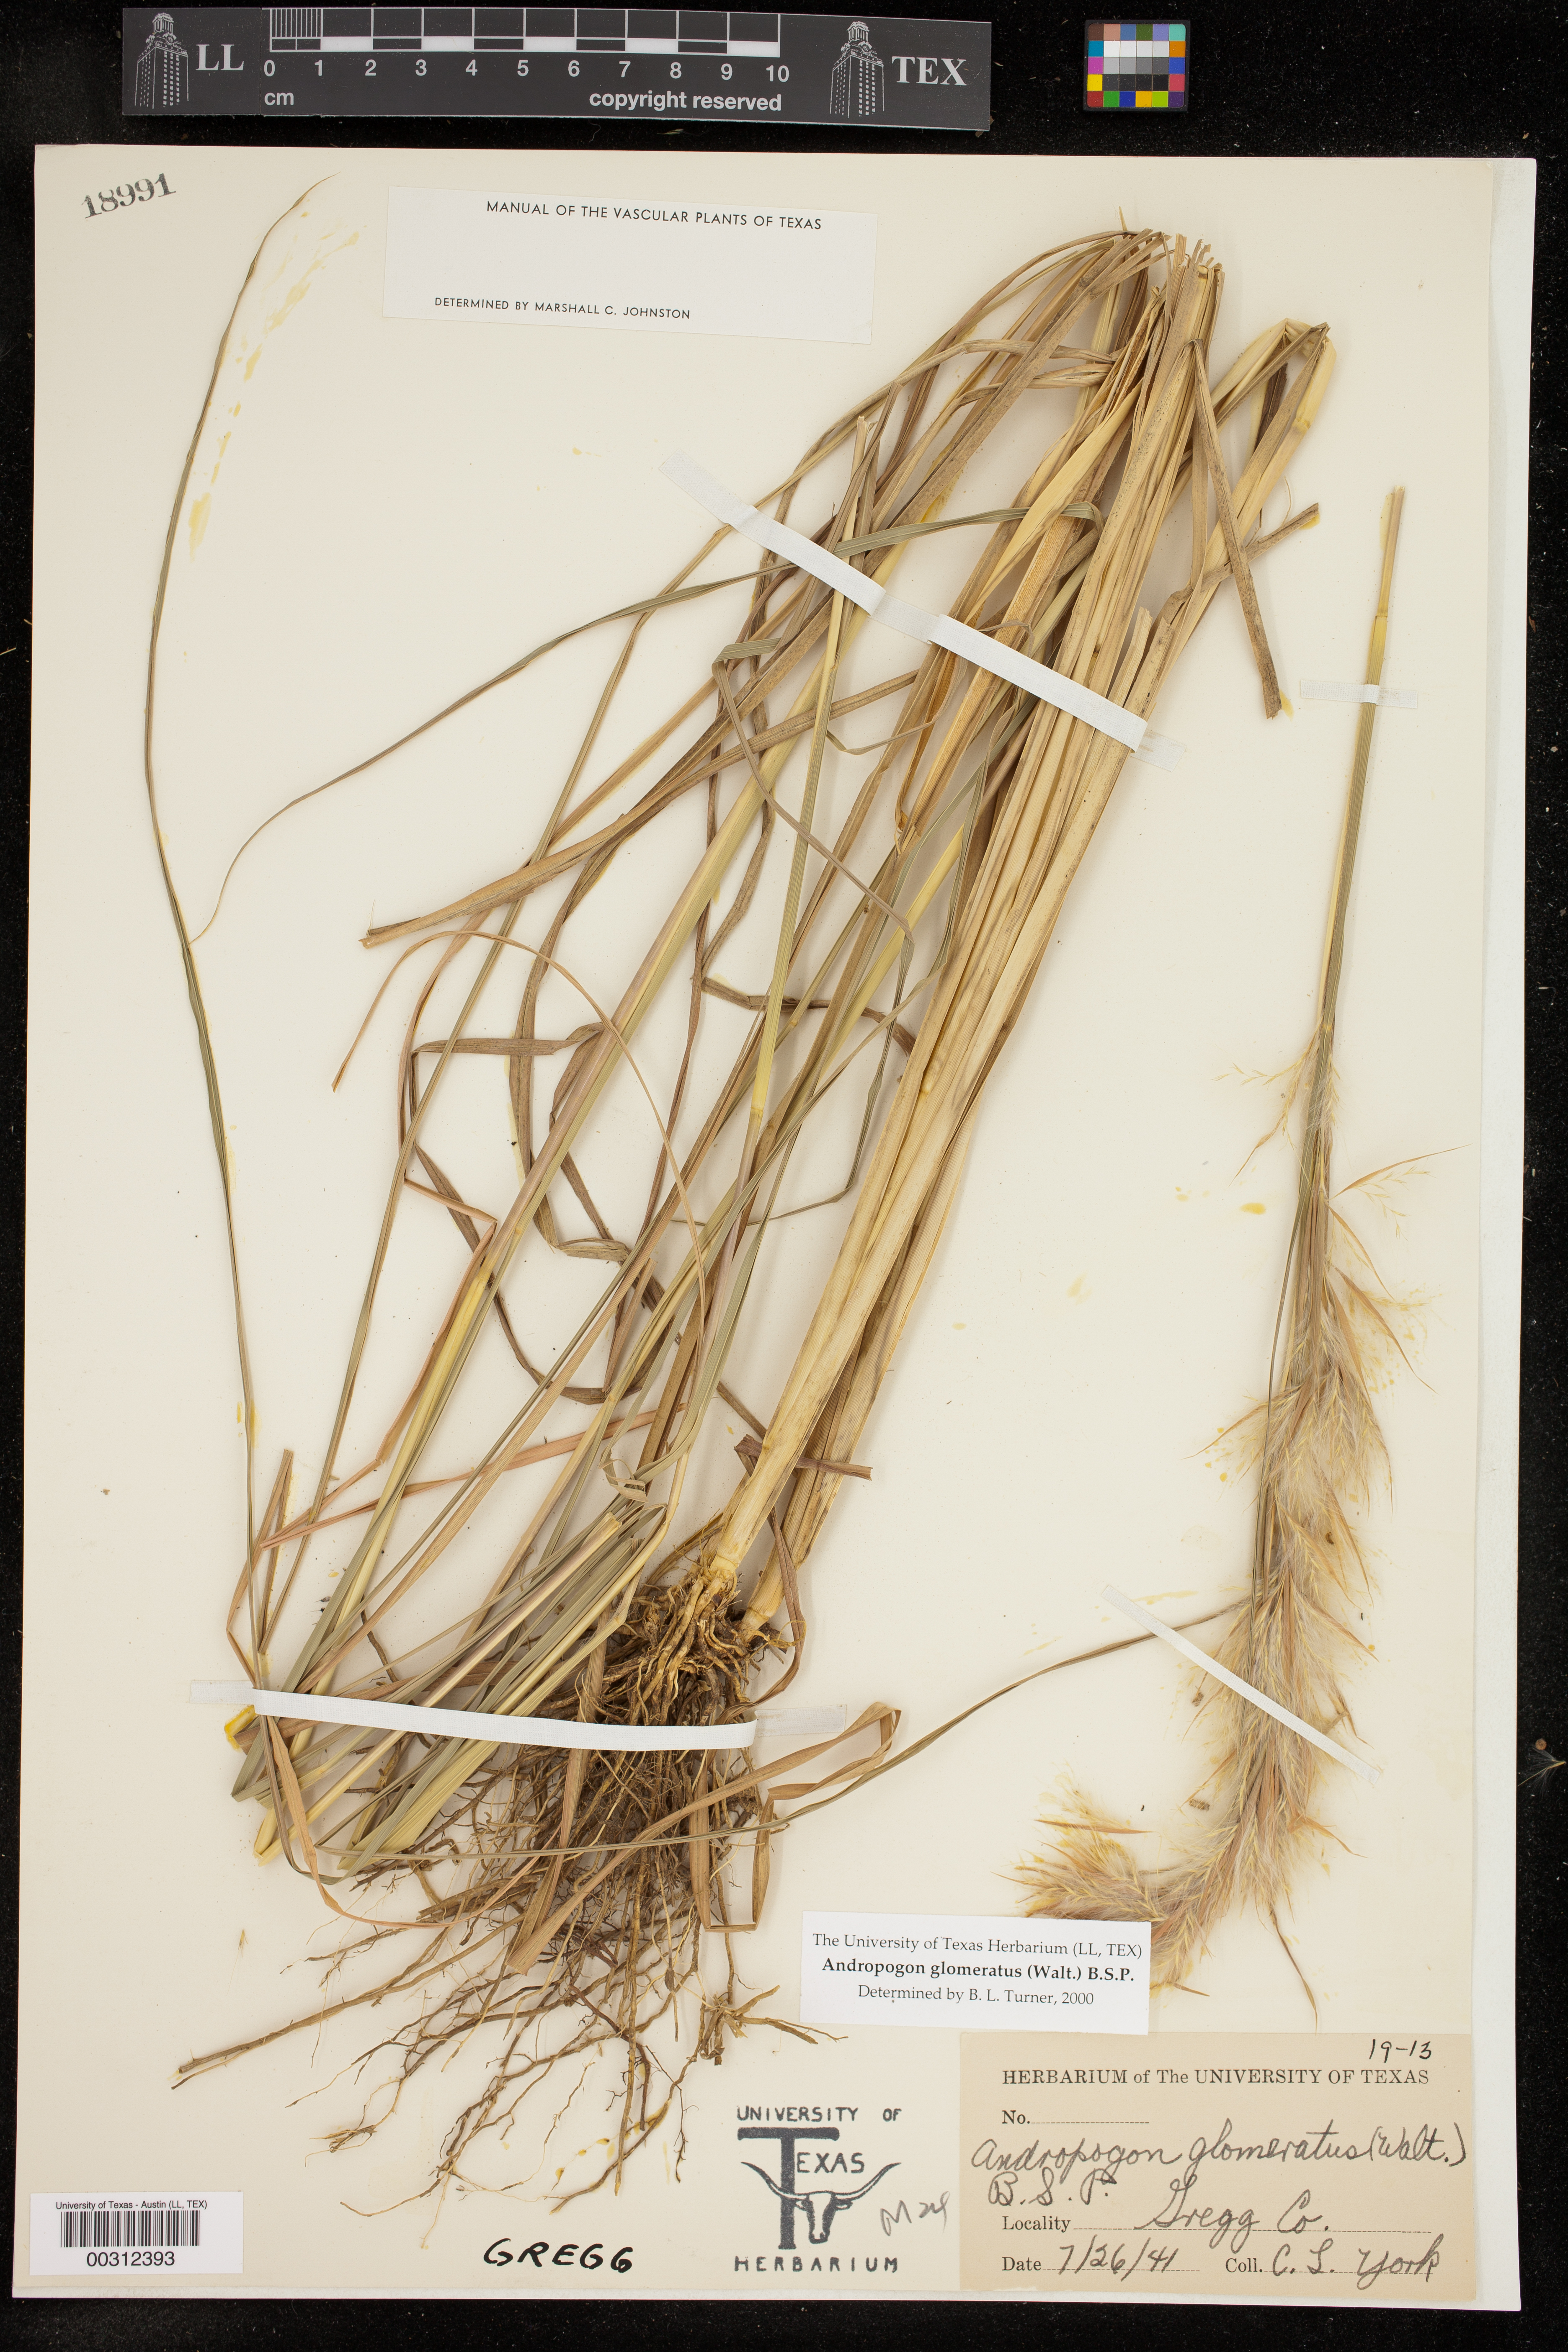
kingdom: Plantae
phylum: Tracheophyta
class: Liliopsida
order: Poales
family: Poaceae
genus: Andropogon
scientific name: Andropogon glomeratus
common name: Bushy beard grass
